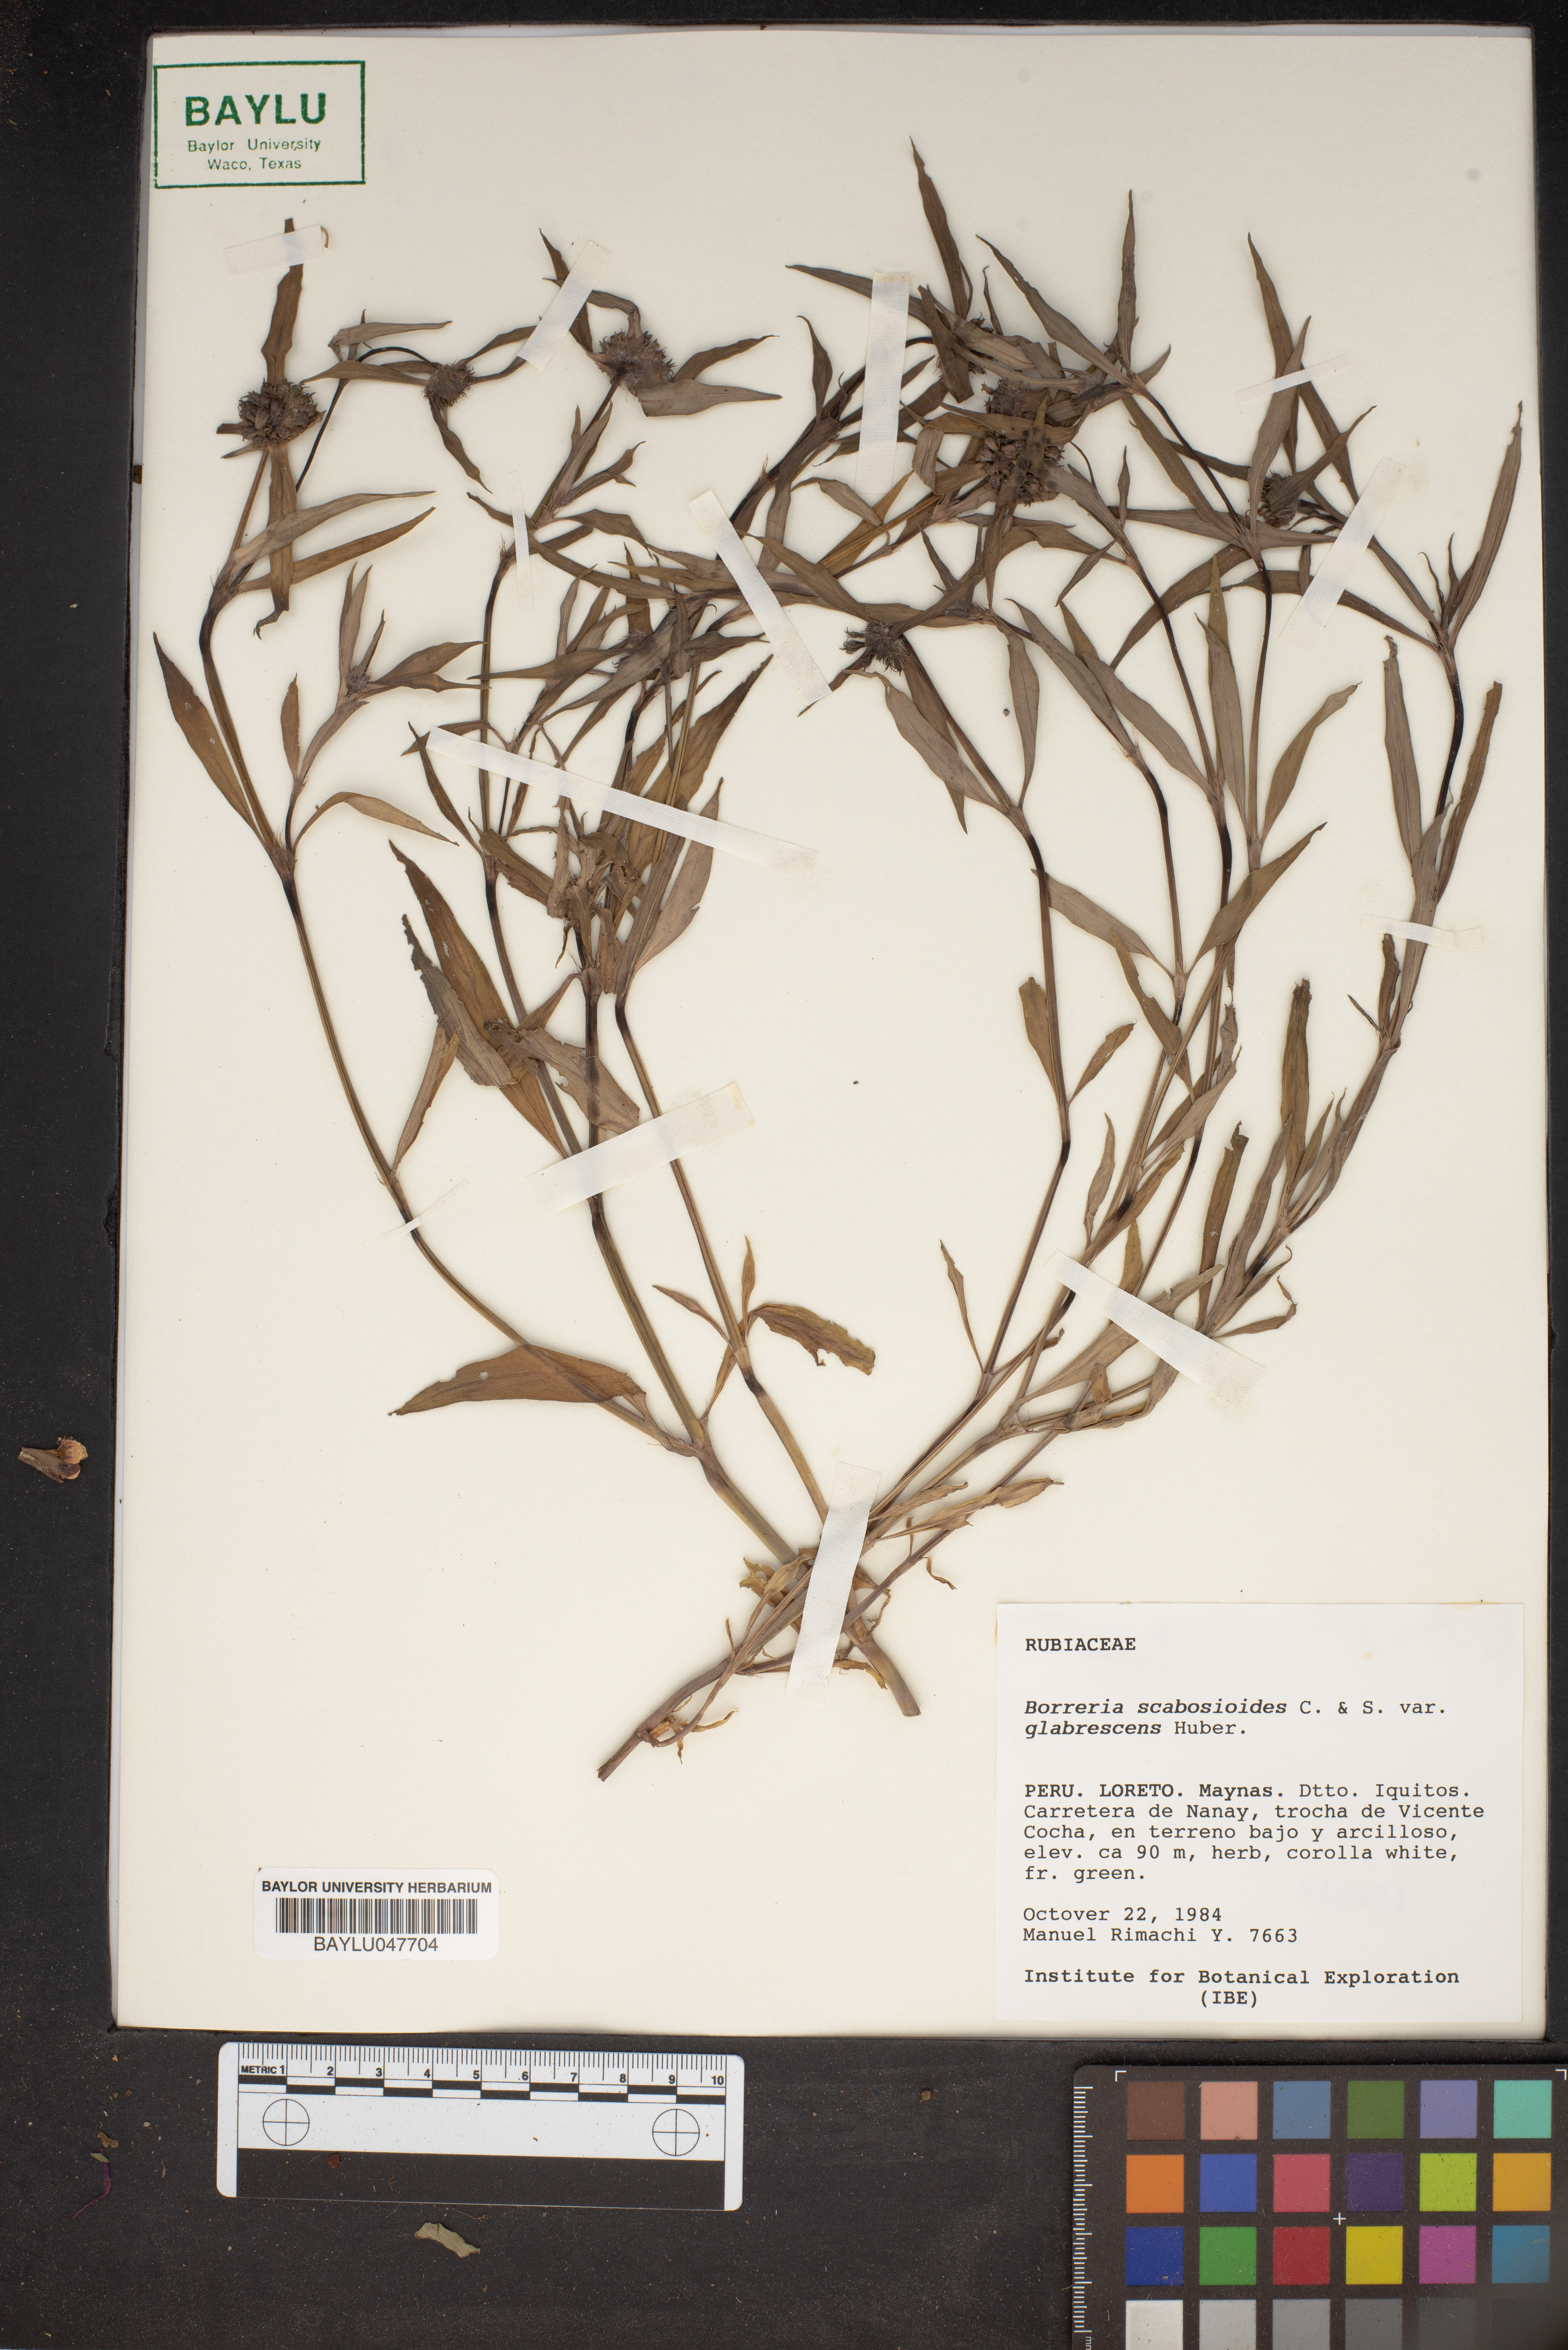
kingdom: Plantae
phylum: Tracheophyta
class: Magnoliopsida
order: Gentianales
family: Rubiaceae
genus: Spermacoce
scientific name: Spermacoce scabiosoides
